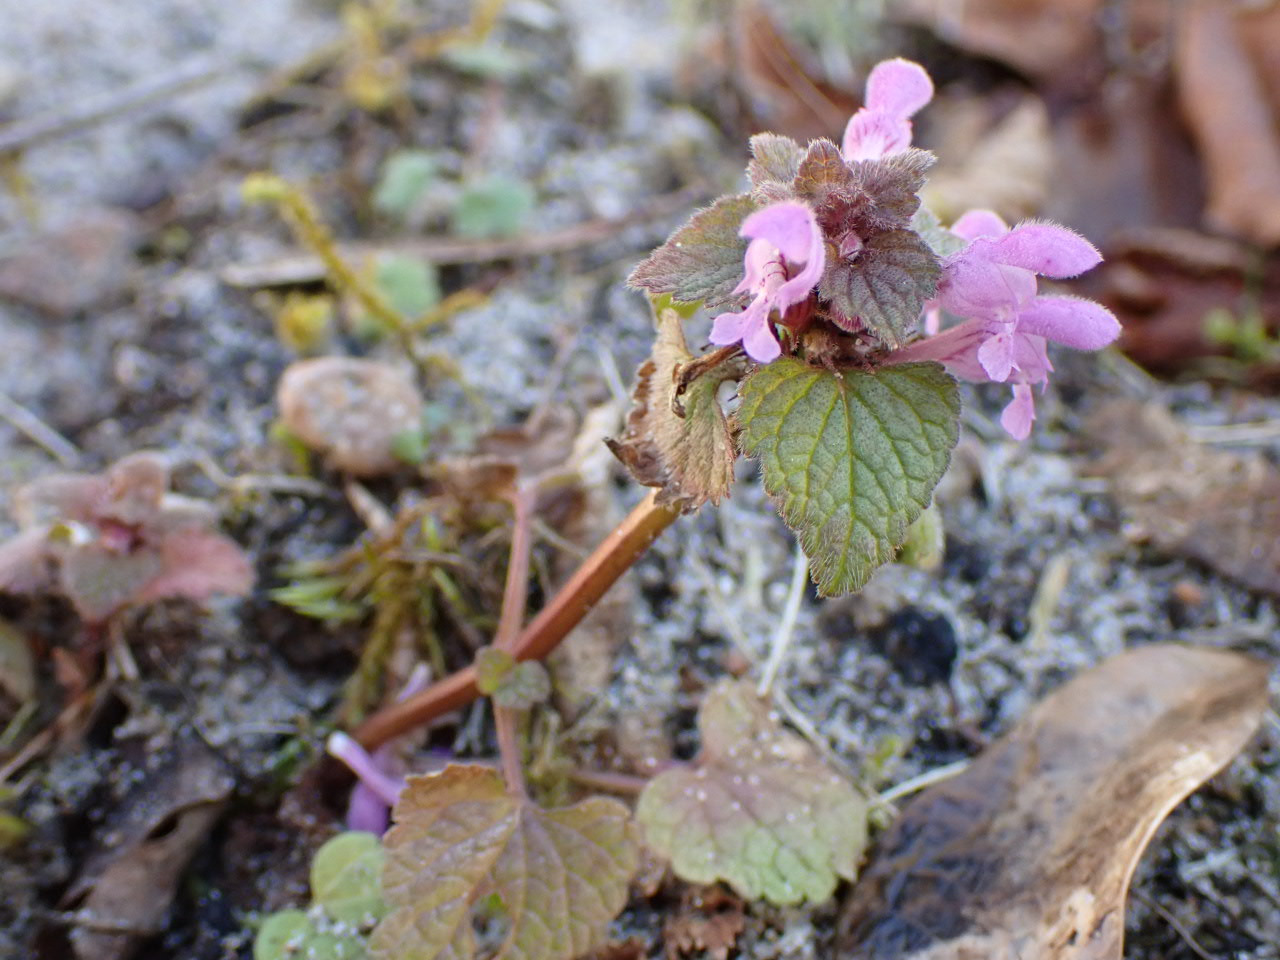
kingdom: Plantae
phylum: Tracheophyta
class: Magnoliopsida
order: Lamiales
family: Lamiaceae
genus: Lamium
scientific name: Lamium purpureum
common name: Rød tvetand
